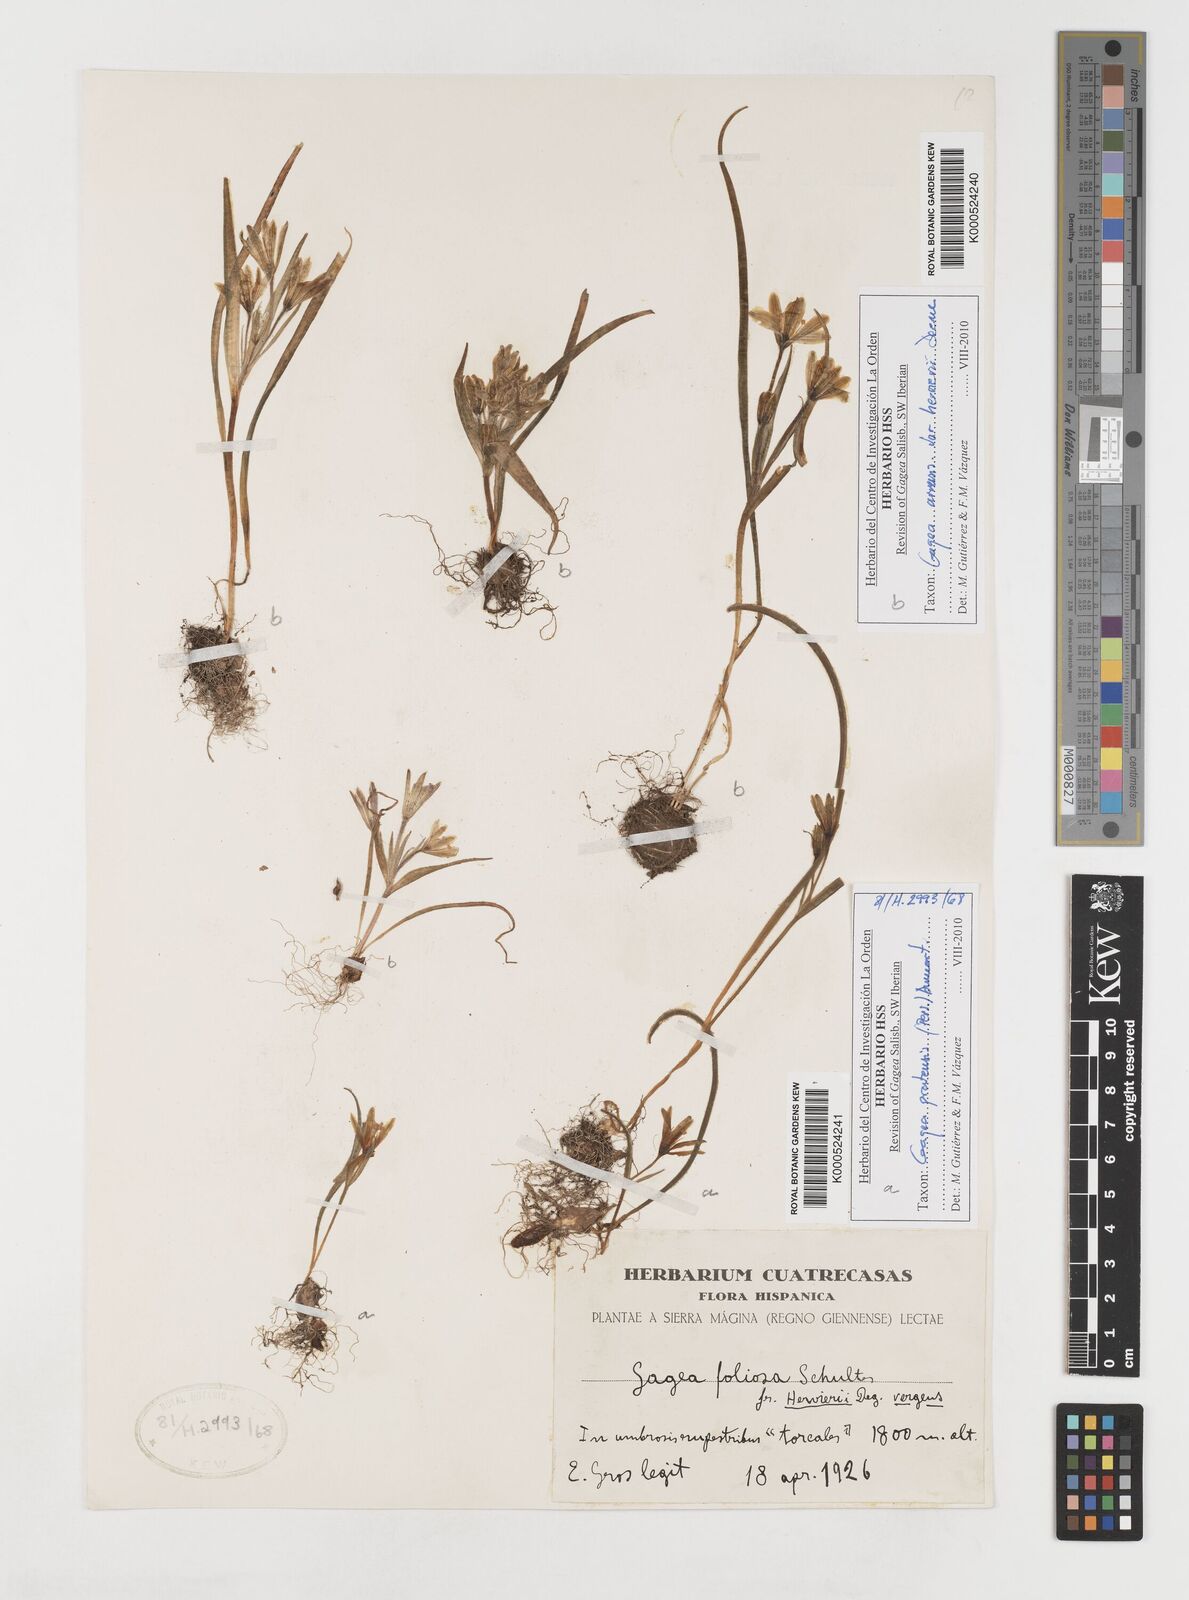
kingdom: Plantae
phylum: Tracheophyta
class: Liliopsida
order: Liliales
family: Liliaceae
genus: Gagea
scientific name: Gagea minima
